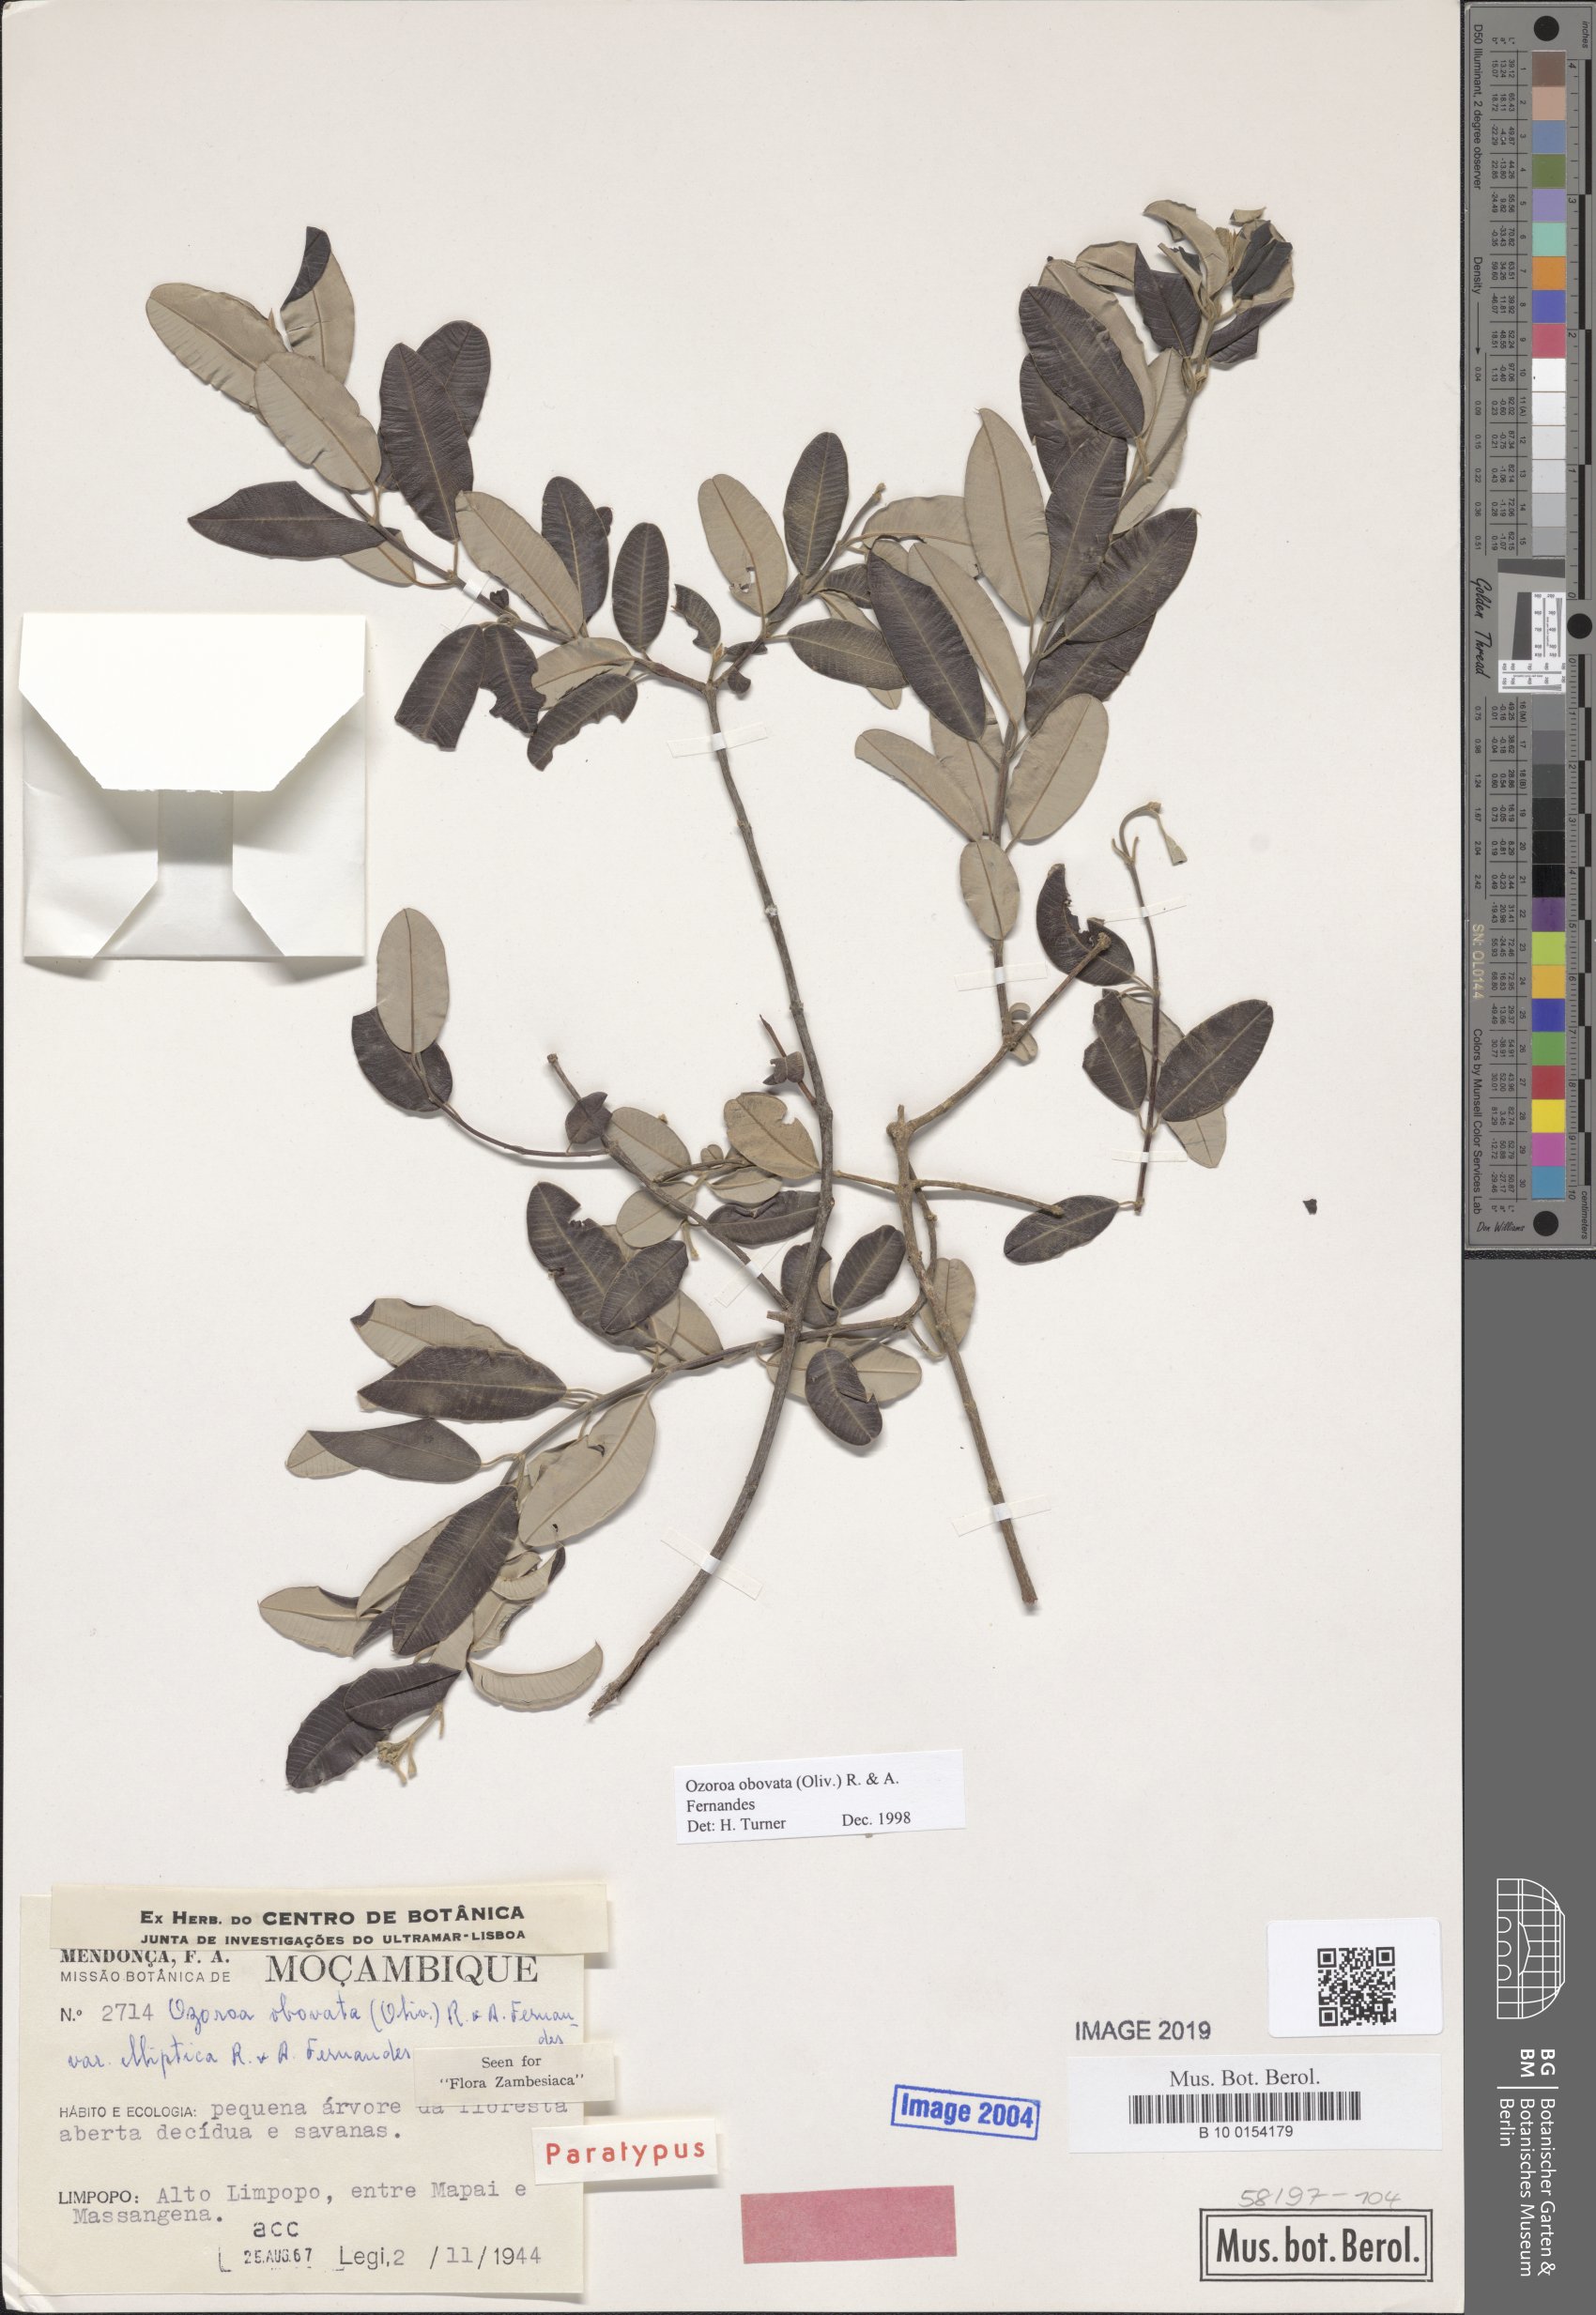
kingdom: Plantae
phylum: Tracheophyta
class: Magnoliopsida
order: Sapindales
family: Anacardiaceae
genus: Ozoroa
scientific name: Ozoroa obovata
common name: Broad-leaved resin tree
